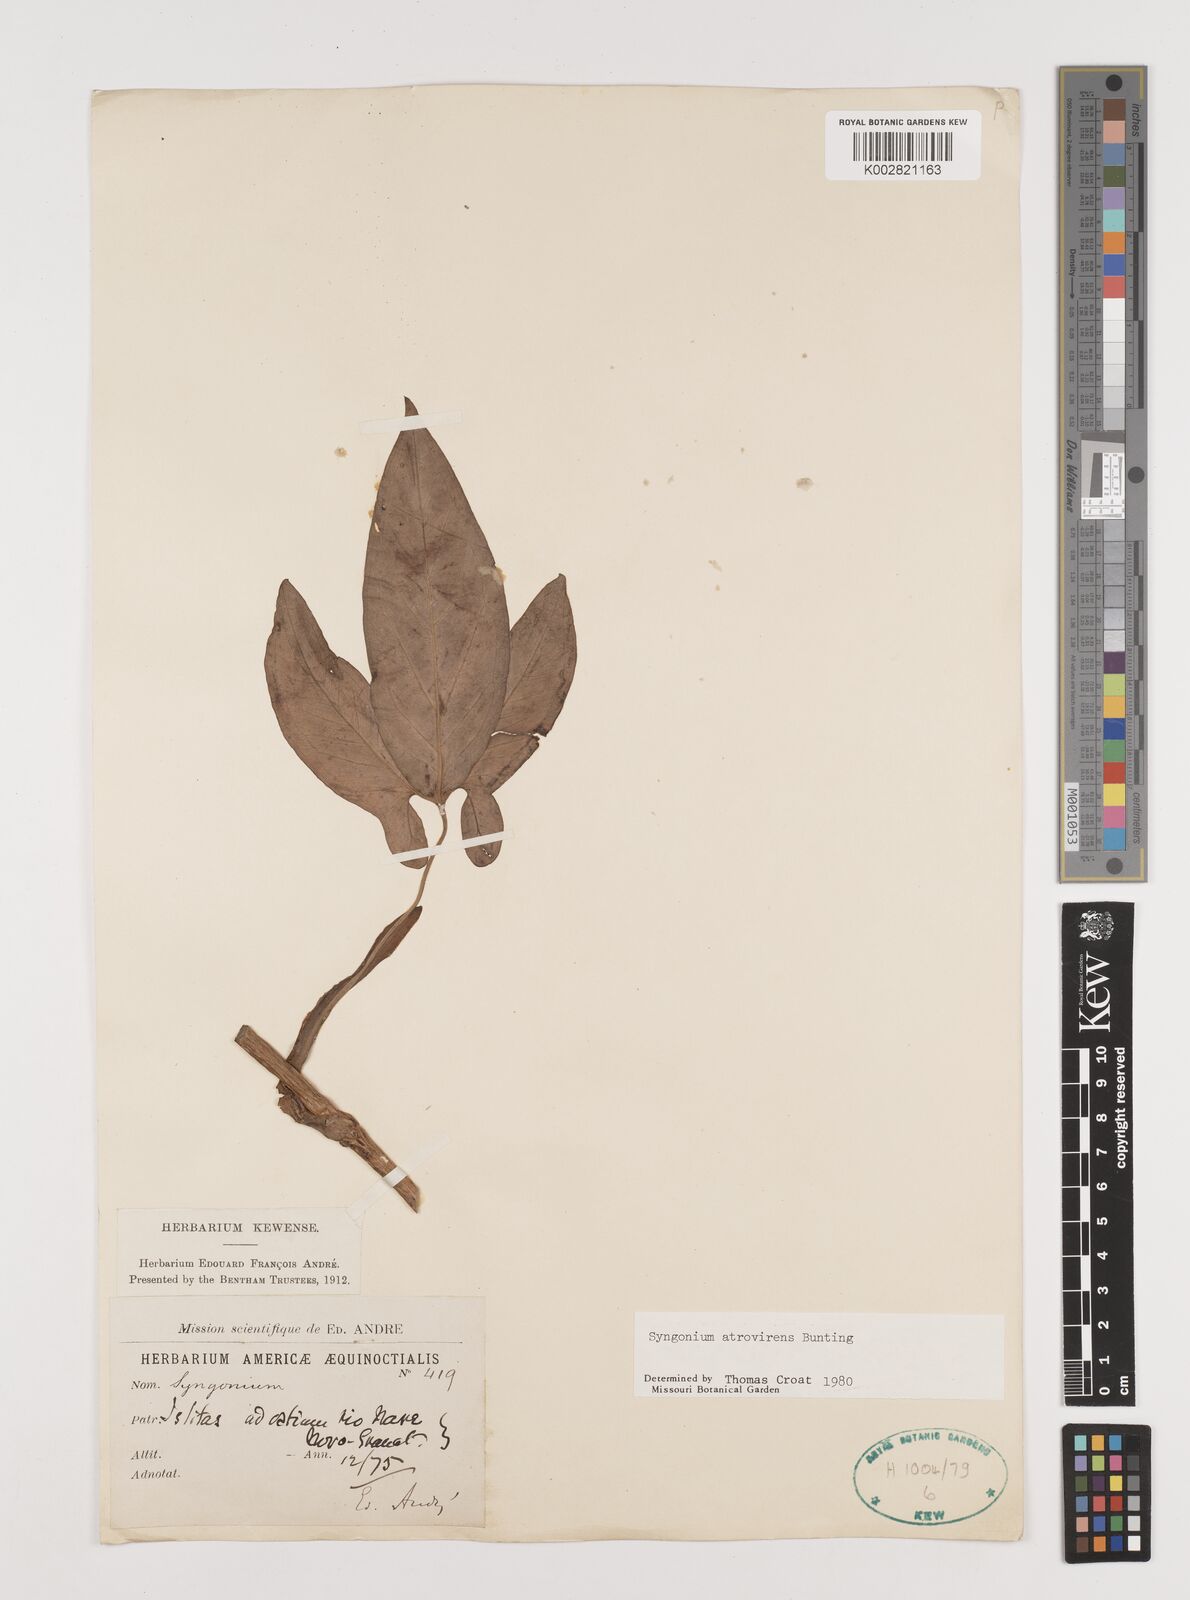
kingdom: Plantae
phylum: Tracheophyta
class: Liliopsida
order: Alismatales
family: Araceae
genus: Syngonium
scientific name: Syngonium yurimaguense
